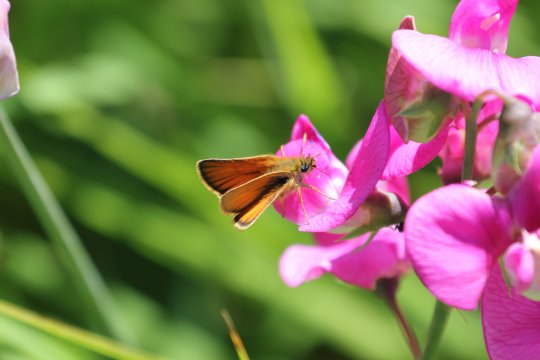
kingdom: Animalia
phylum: Arthropoda
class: Insecta
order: Lepidoptera
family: Hesperiidae
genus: Thymelicus
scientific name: Thymelicus lineola
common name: European Skipper
